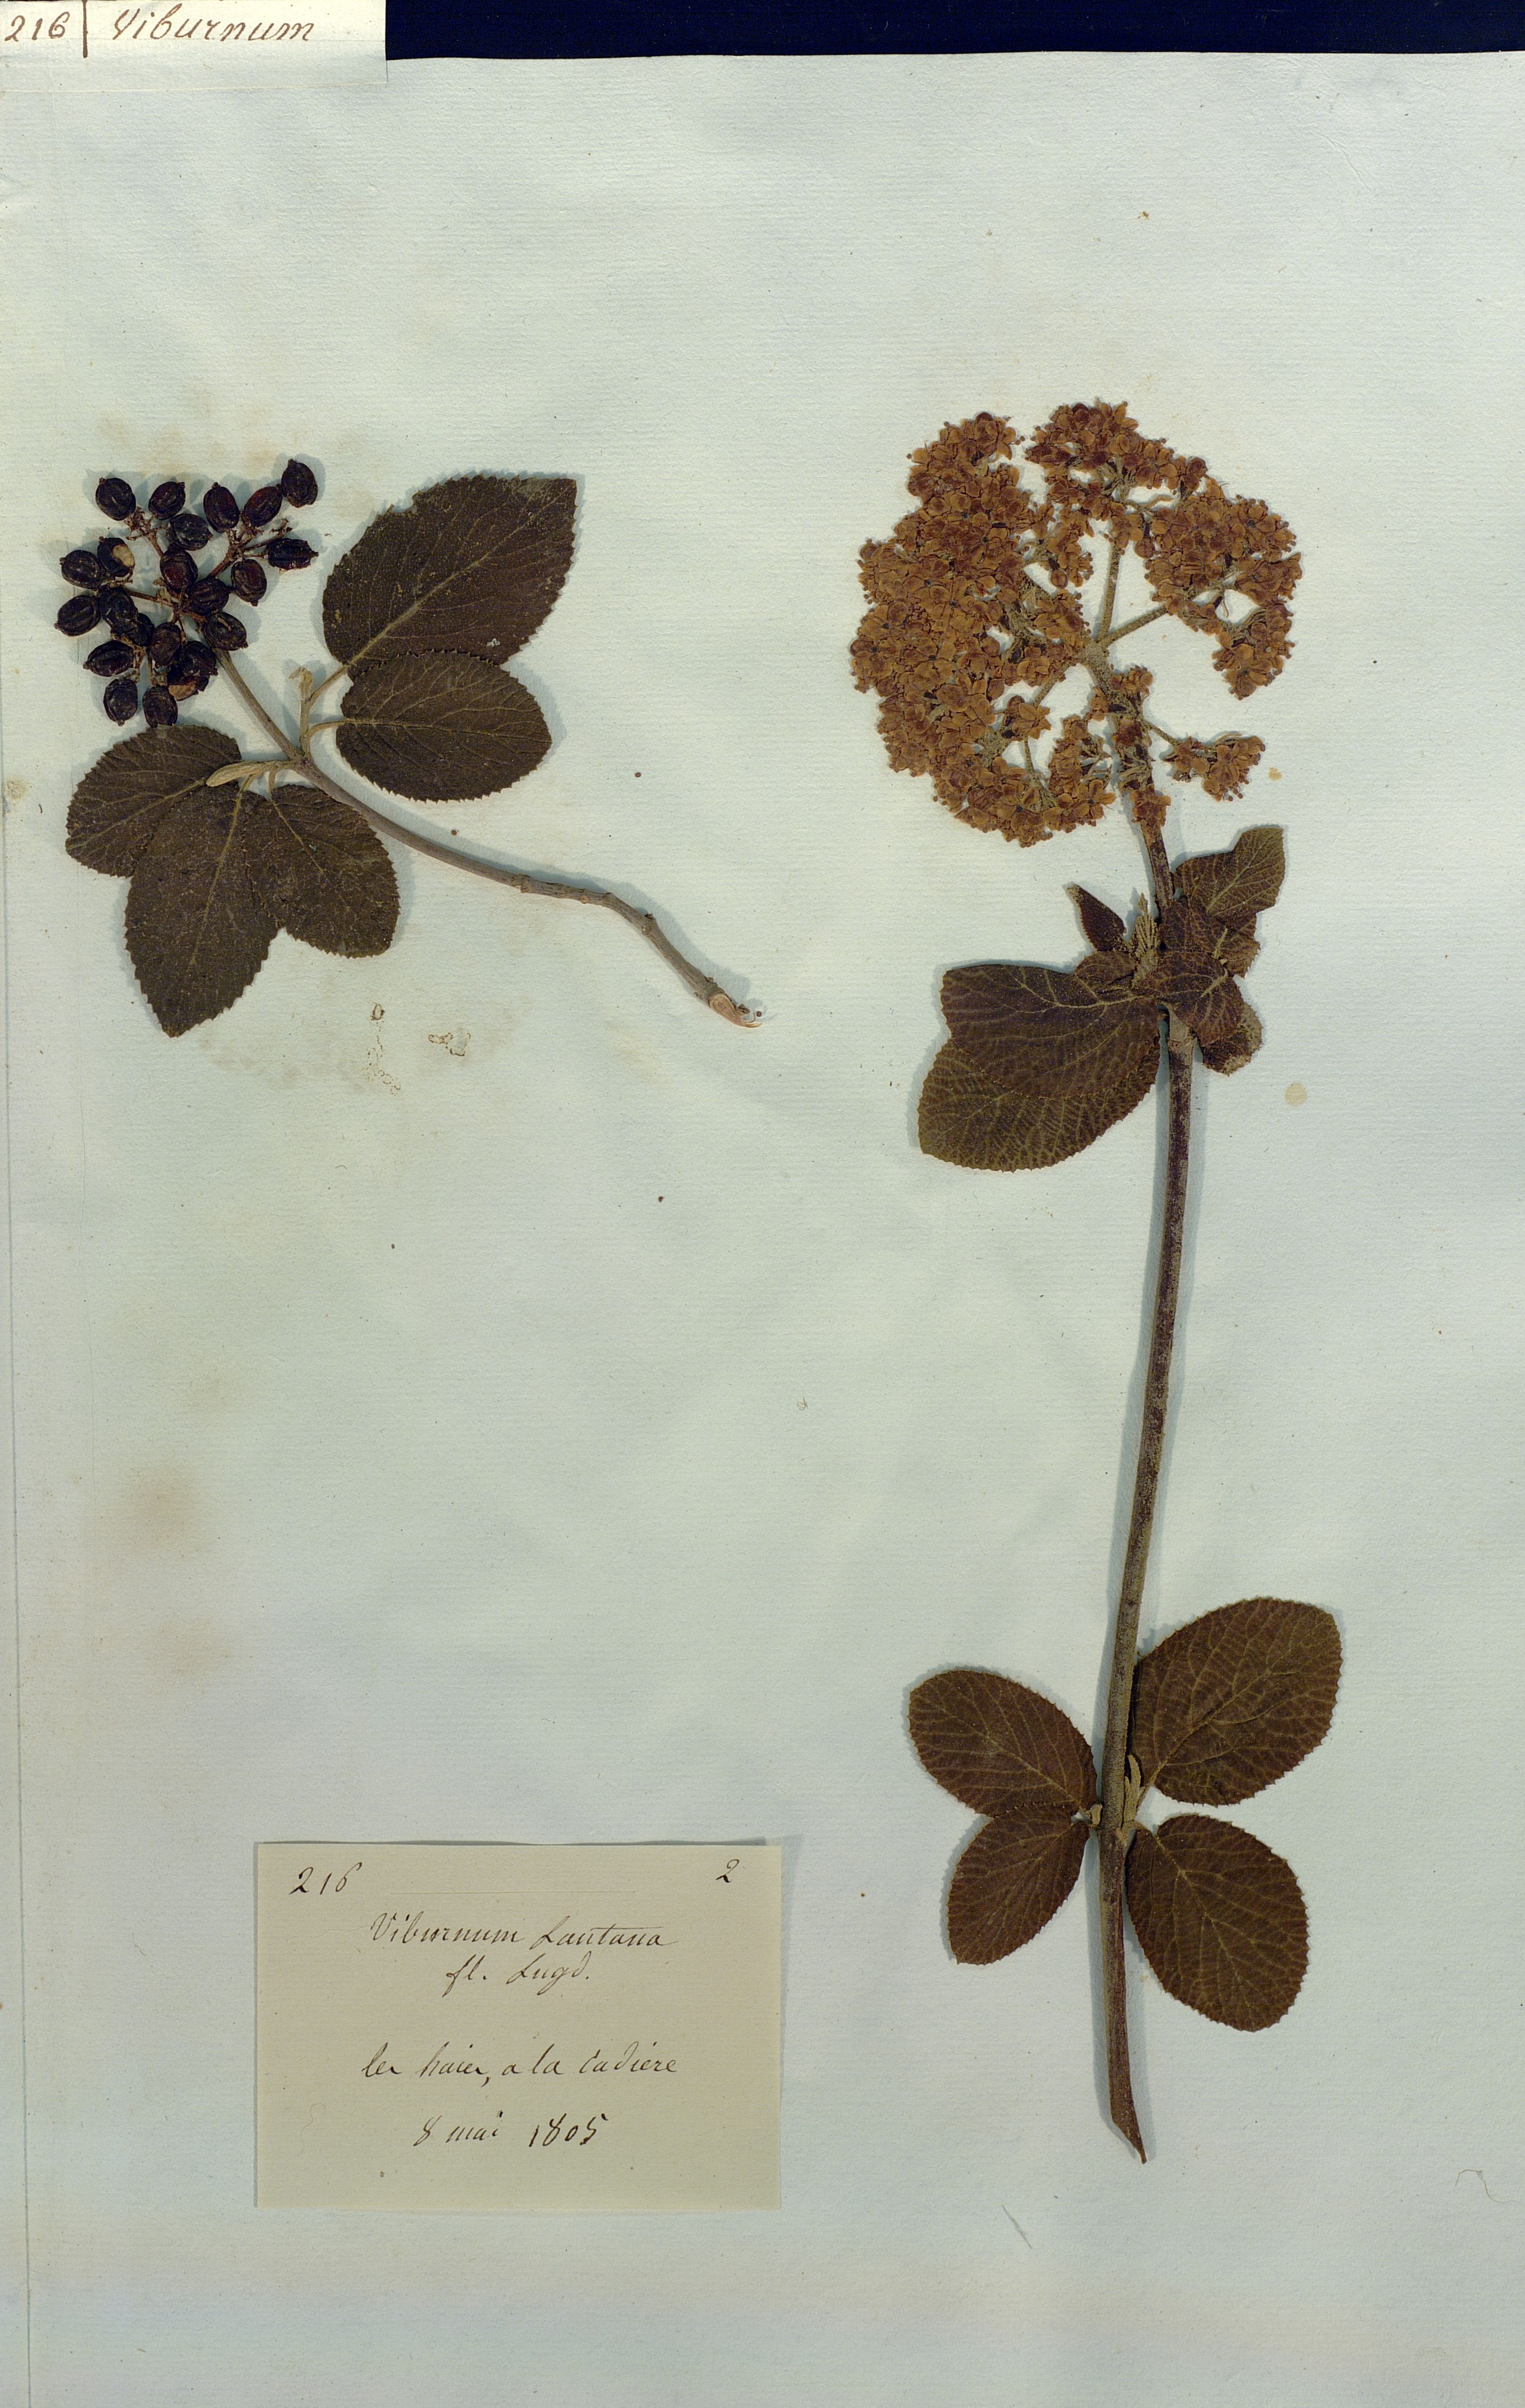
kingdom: Plantae
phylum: Tracheophyta
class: Magnoliopsida
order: Dipsacales
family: Viburnaceae
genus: Viburnum
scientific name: Viburnum lantana
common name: Wayfaring tree
